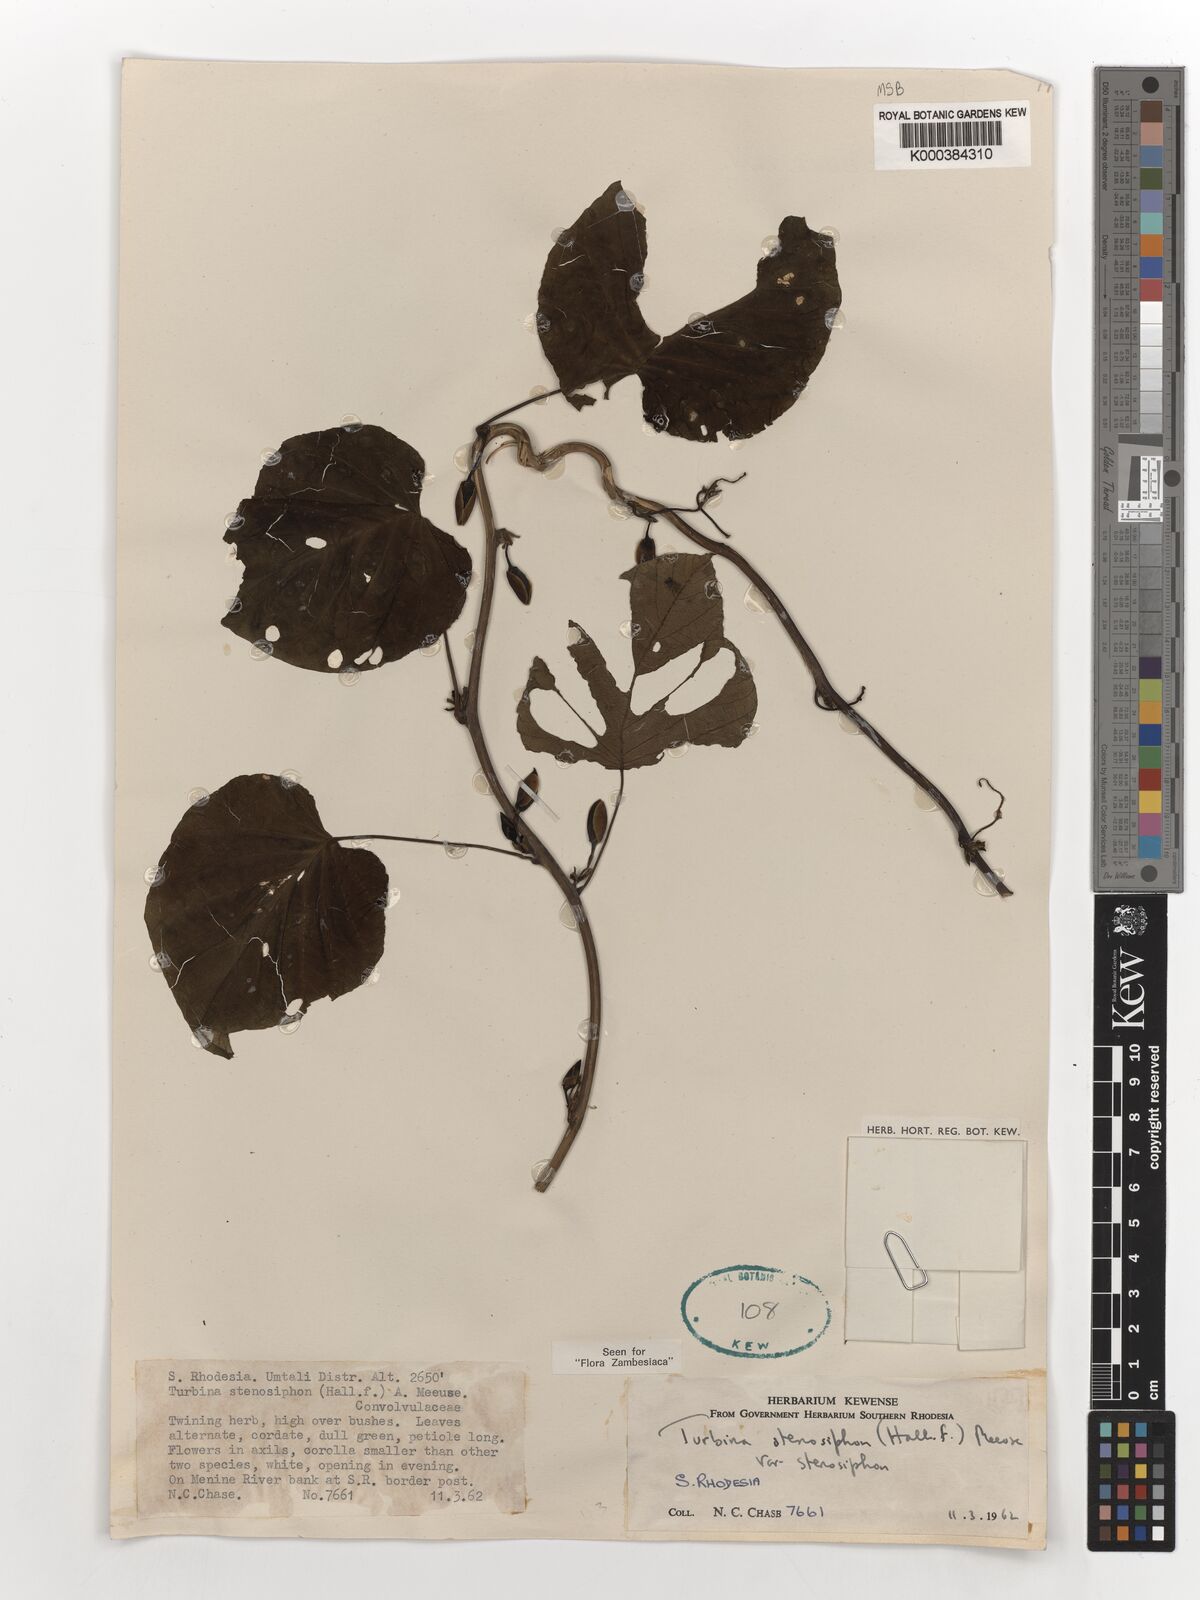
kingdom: Plantae
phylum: Tracheophyta
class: Magnoliopsida
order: Solanales
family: Convolvulaceae
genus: Ipomoea
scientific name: Ipomoea stenosiphon
